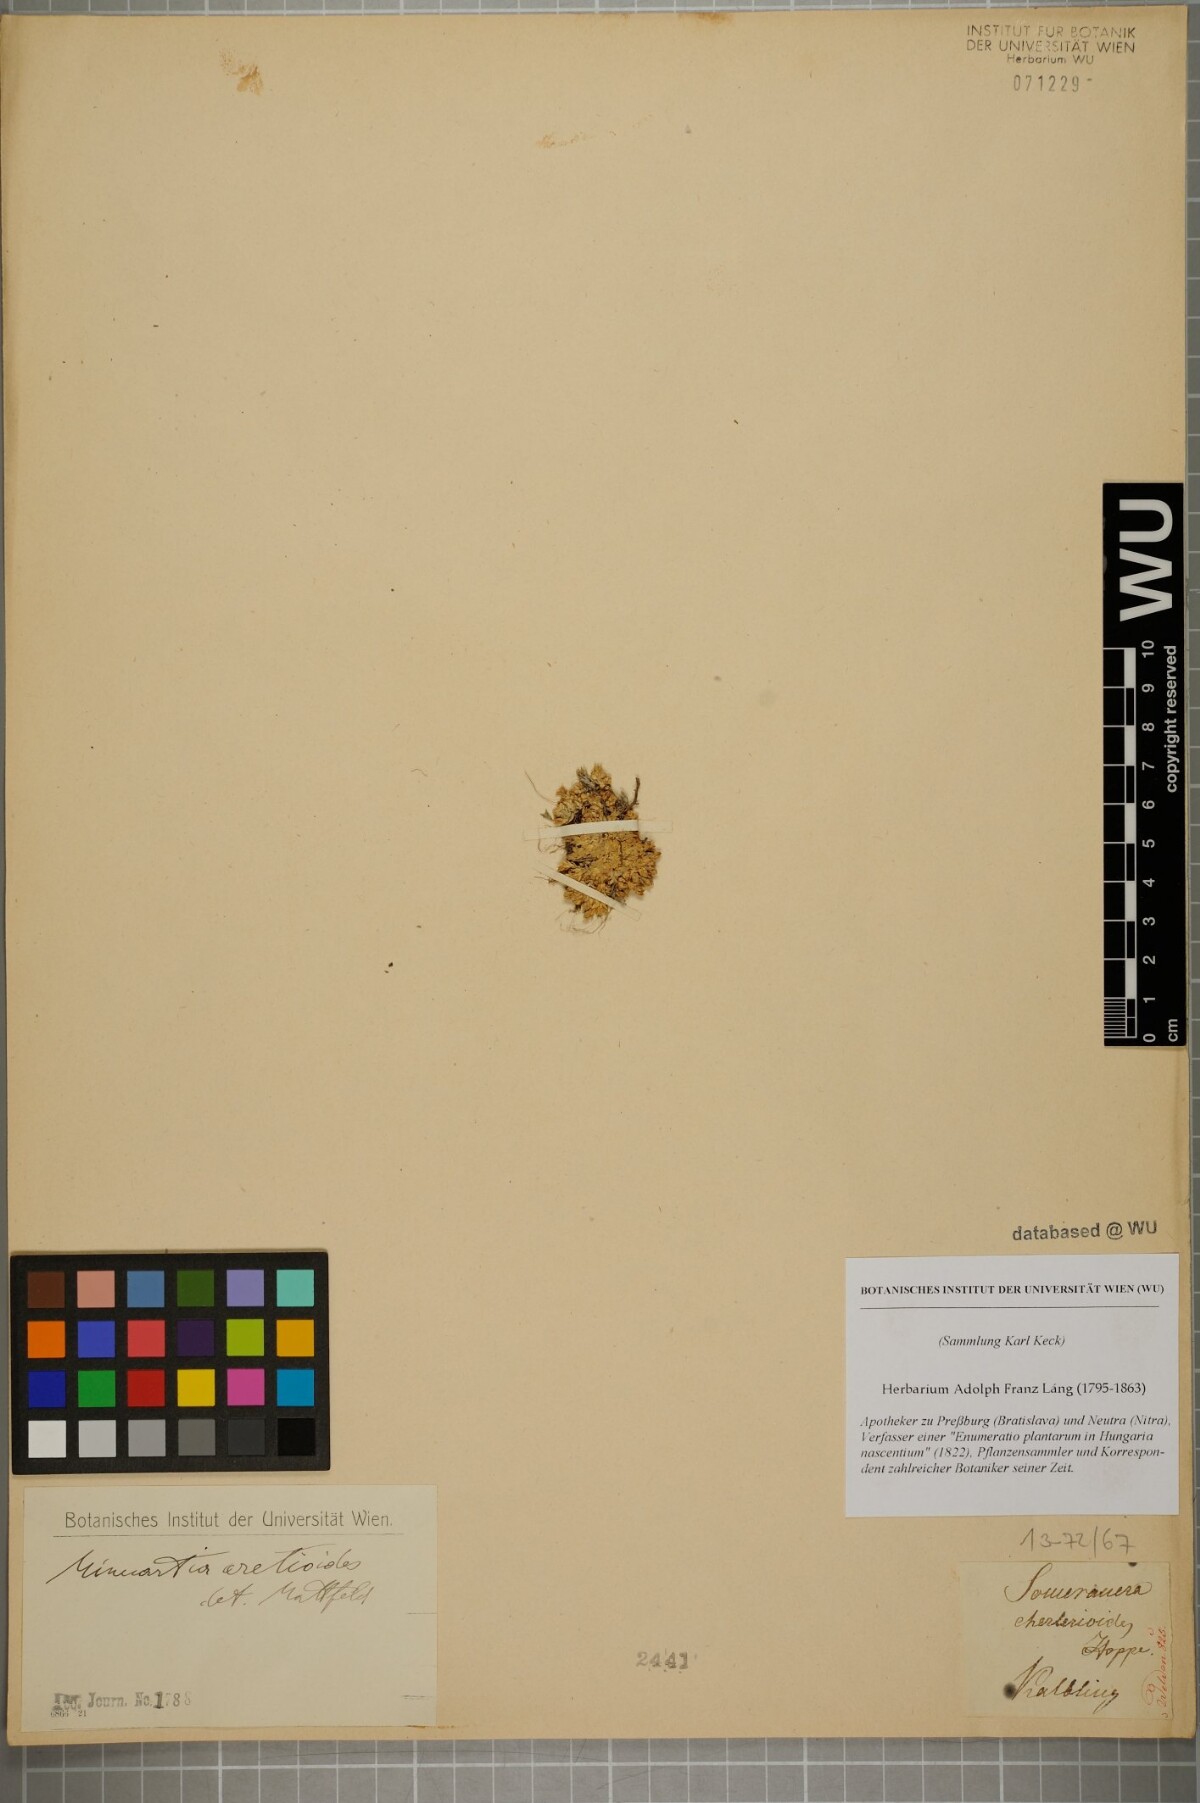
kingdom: Plantae
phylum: Tracheophyta
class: Magnoliopsida
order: Caryophyllales
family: Caryophyllaceae
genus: Facchinia
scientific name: Facchinia cherlerioides
